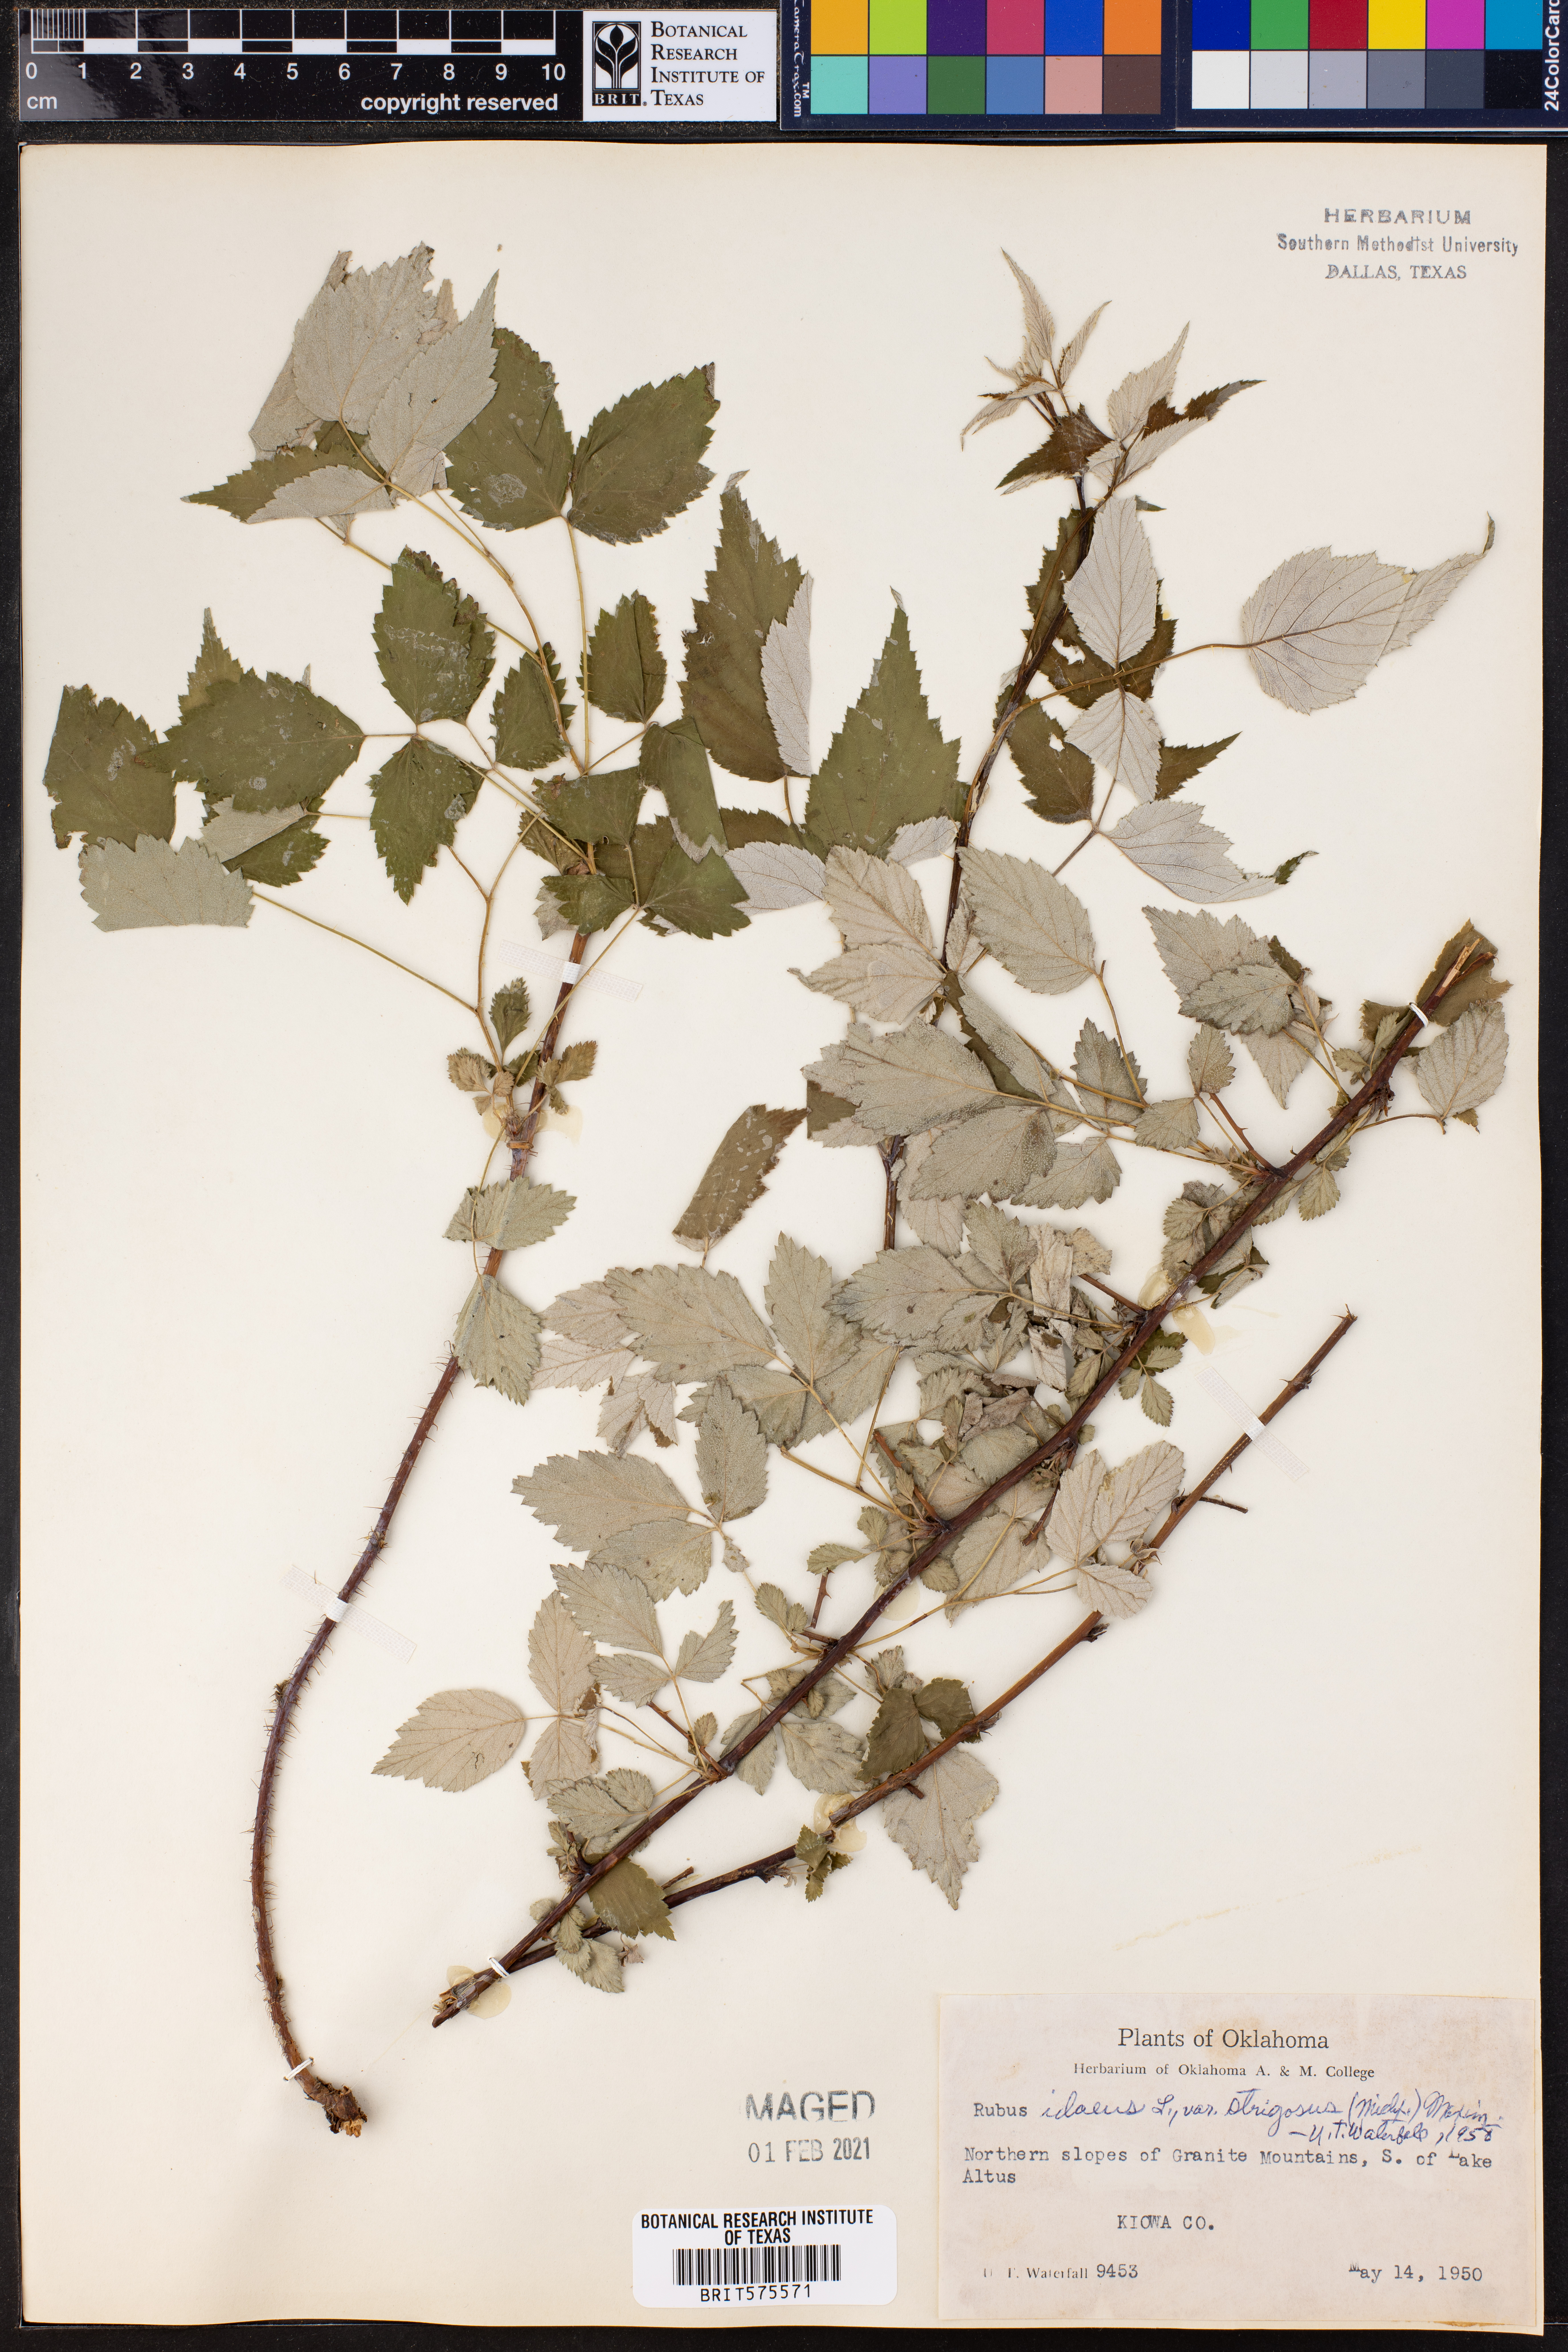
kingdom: Plantae
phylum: Tracheophyta
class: Magnoliopsida
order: Rosales
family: Rosaceae
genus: Rubus
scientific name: Rubus idaeus
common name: Raspberry
